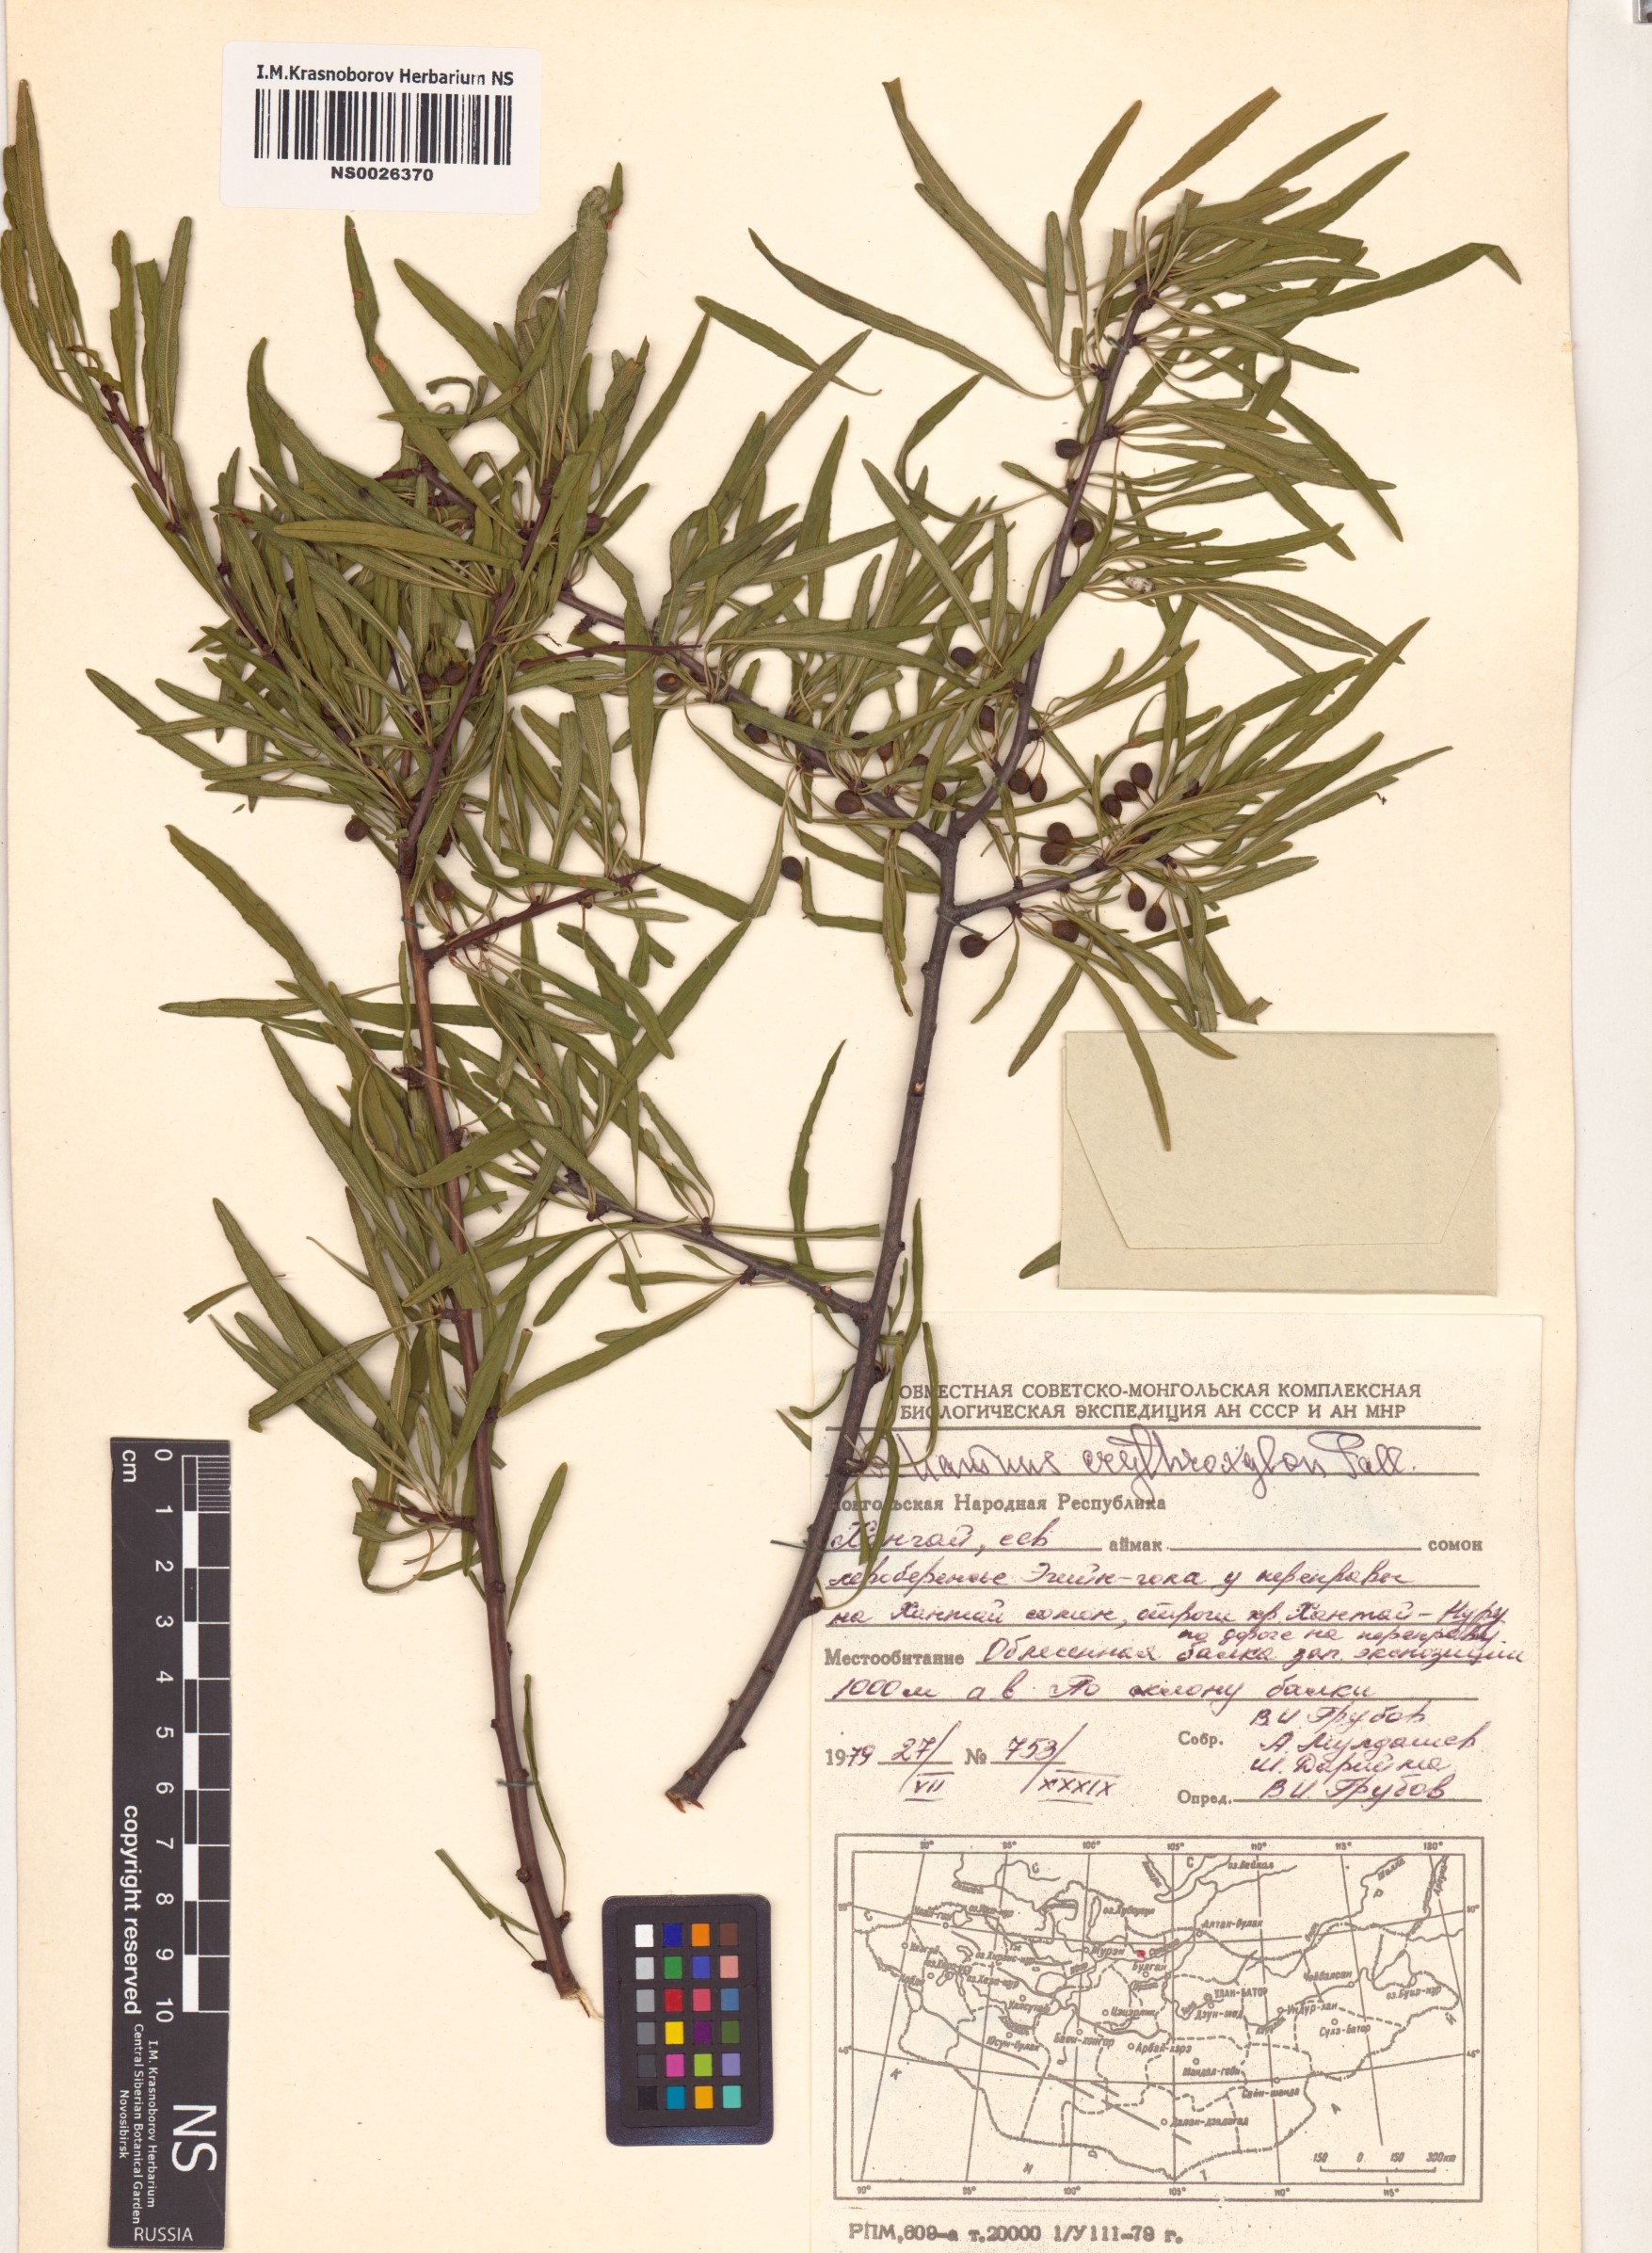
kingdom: Plantae
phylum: Tracheophyta
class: Magnoliopsida
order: Rosales
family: Rhamnaceae
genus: Rhamnus
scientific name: Rhamnus erythroxylum
